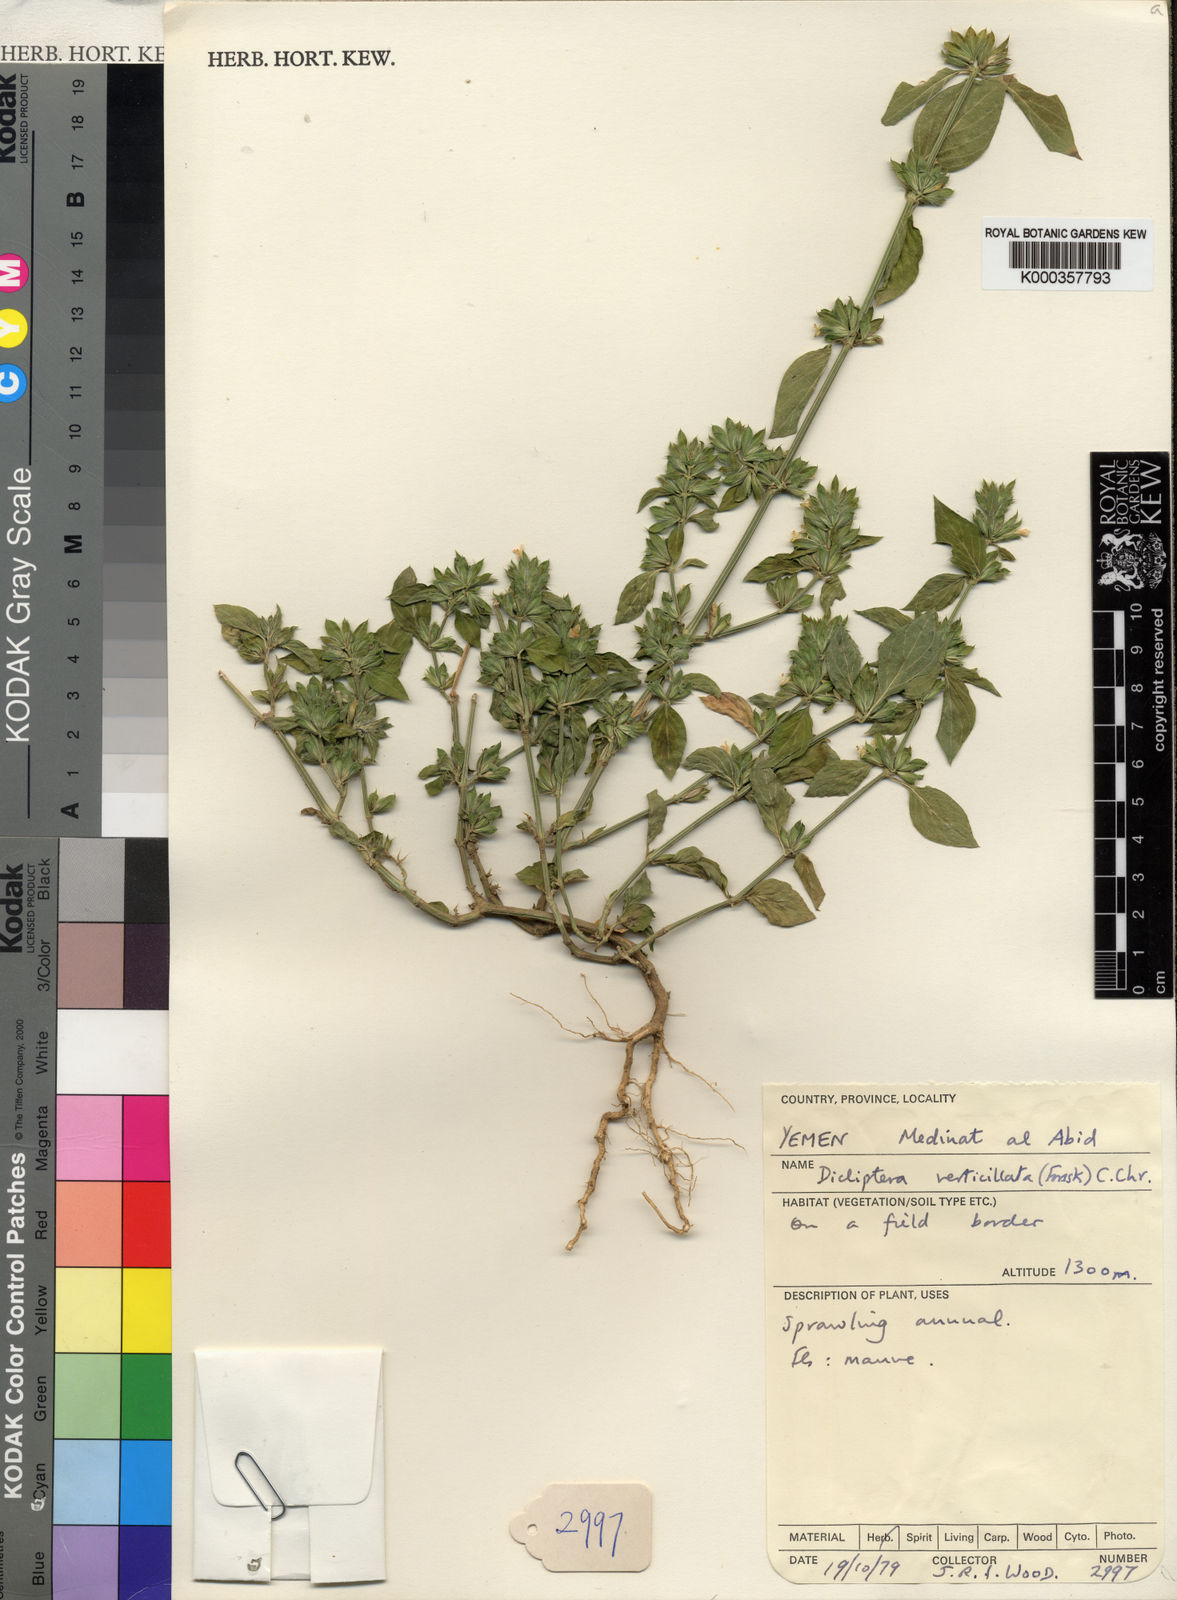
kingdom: Plantae
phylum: Tracheophyta
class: Magnoliopsida
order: Lamiales
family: Acanthaceae
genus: Dicliptera
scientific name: Dicliptera verticillata
